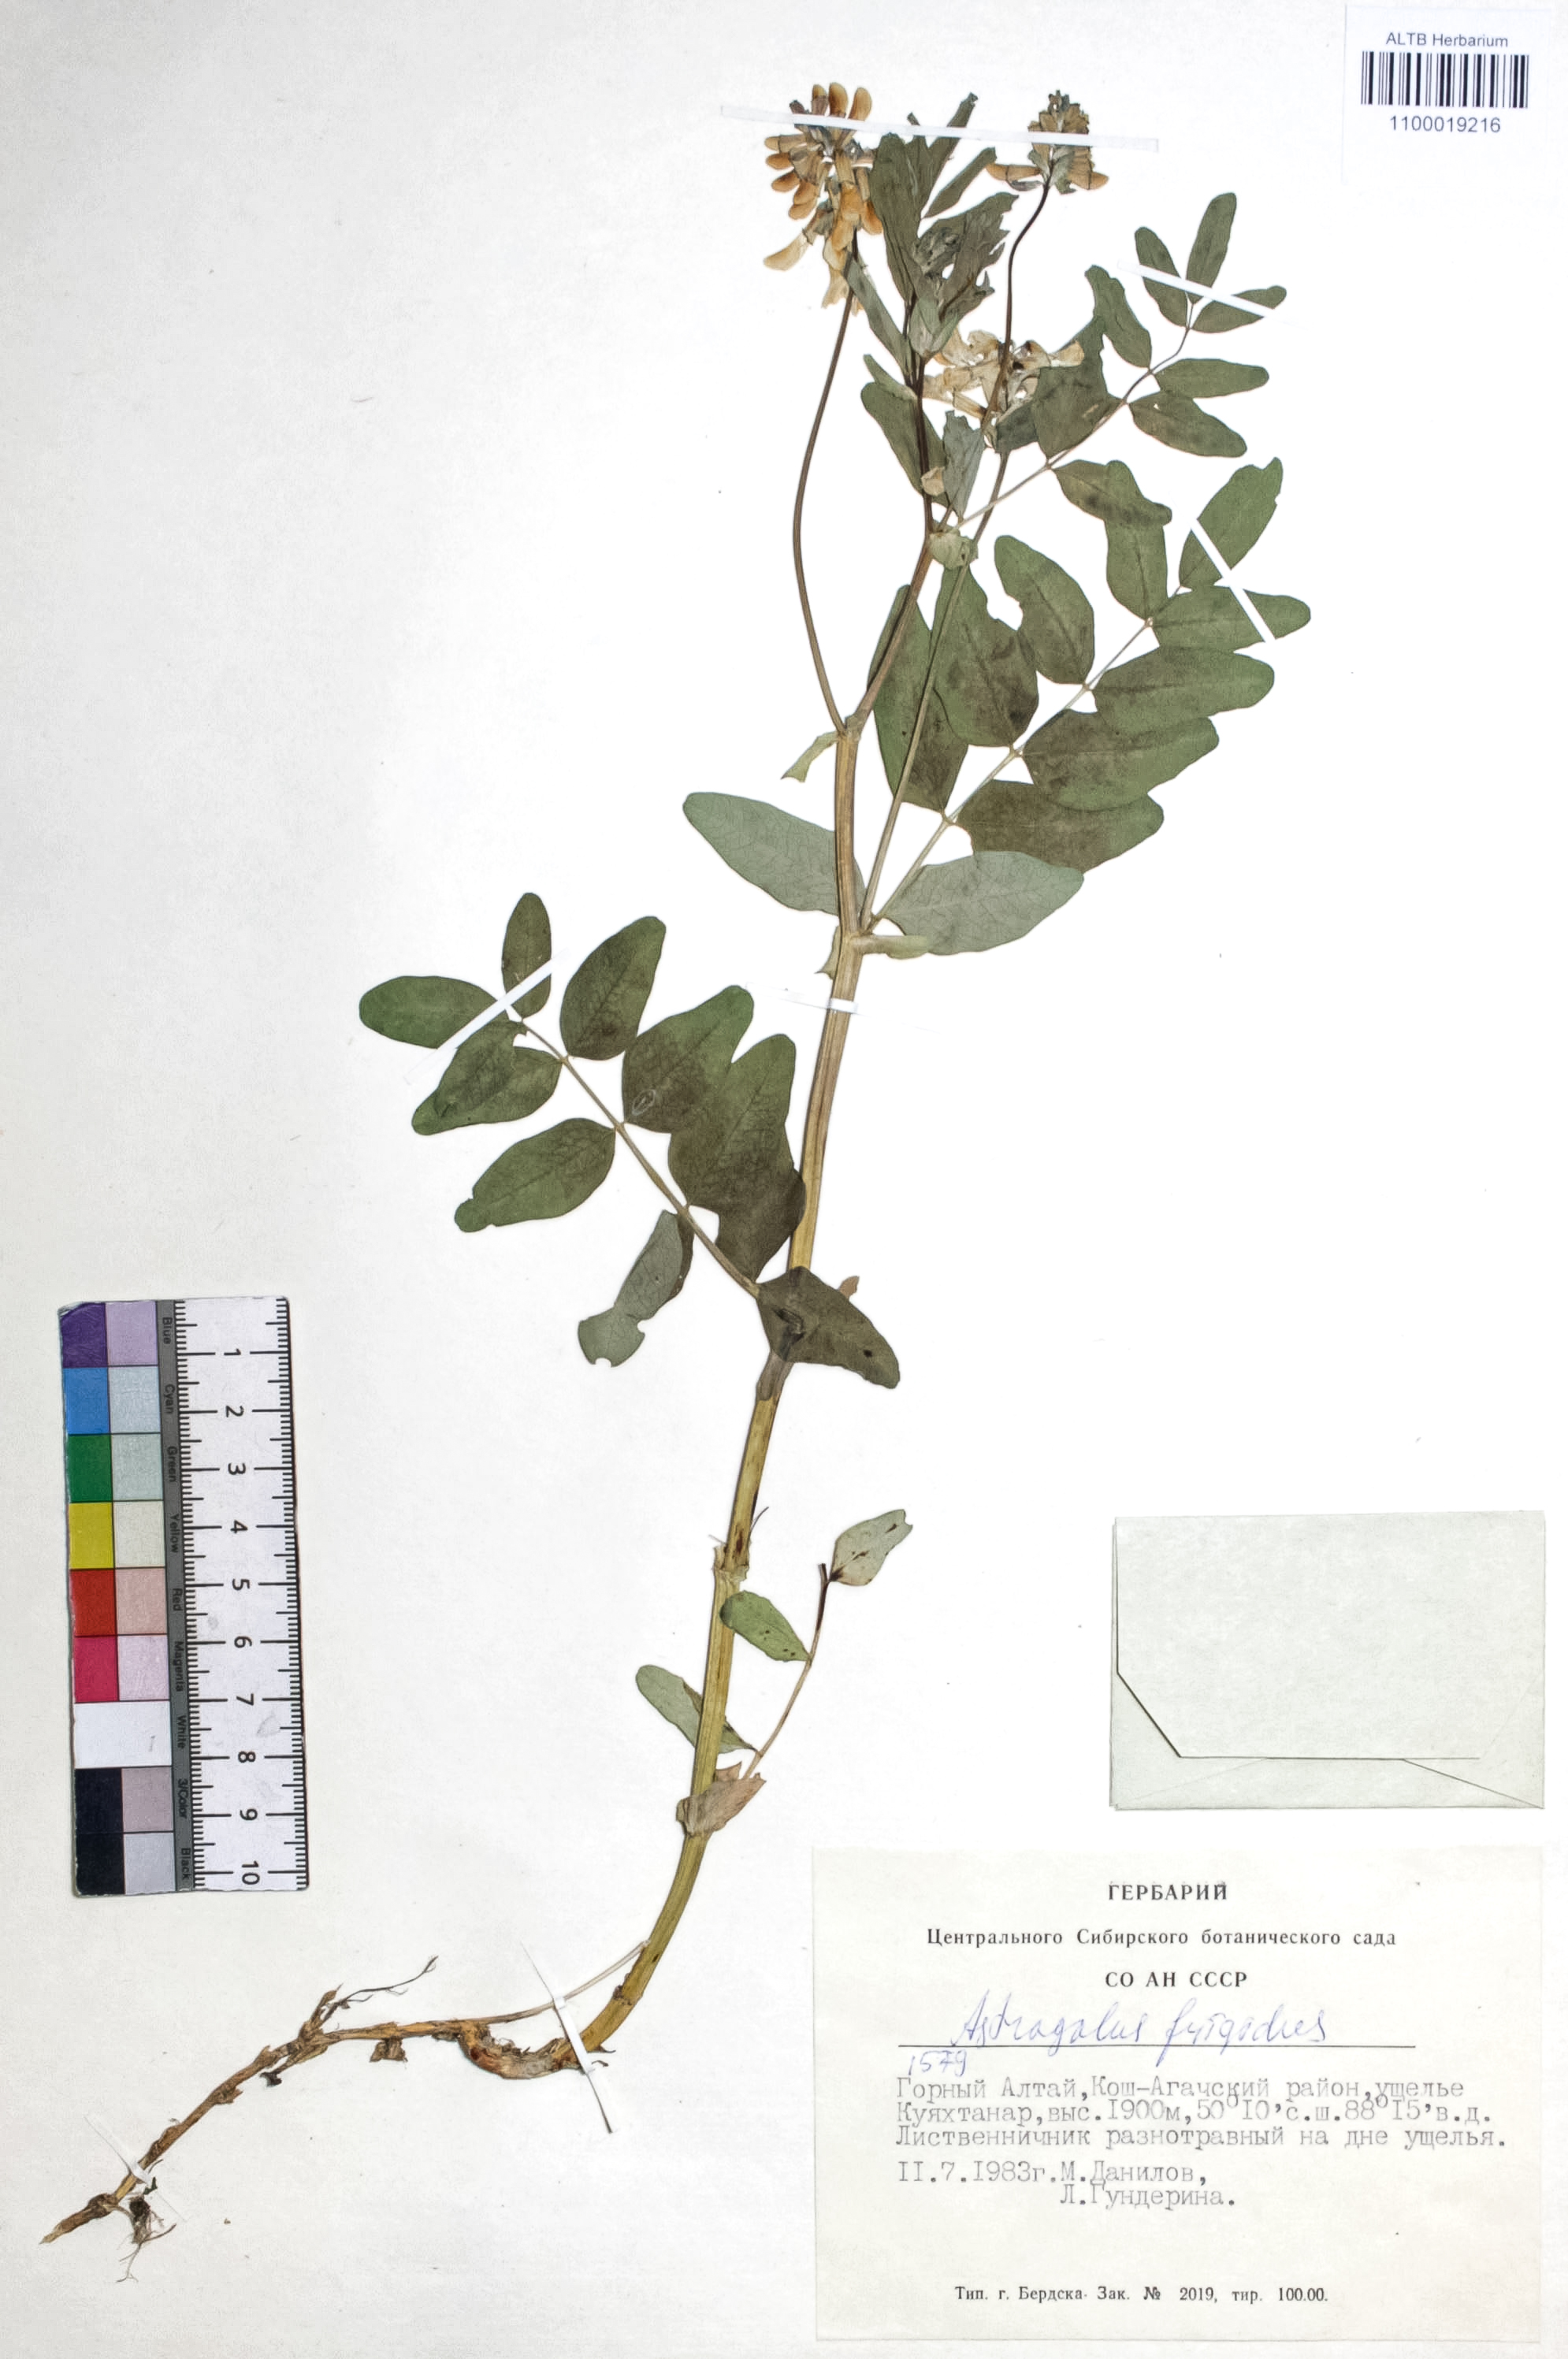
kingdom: Plantae
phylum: Tracheophyta
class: Magnoliopsida
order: Fabales
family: Fabaceae
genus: Astragalus
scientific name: Astragalus frigidus
